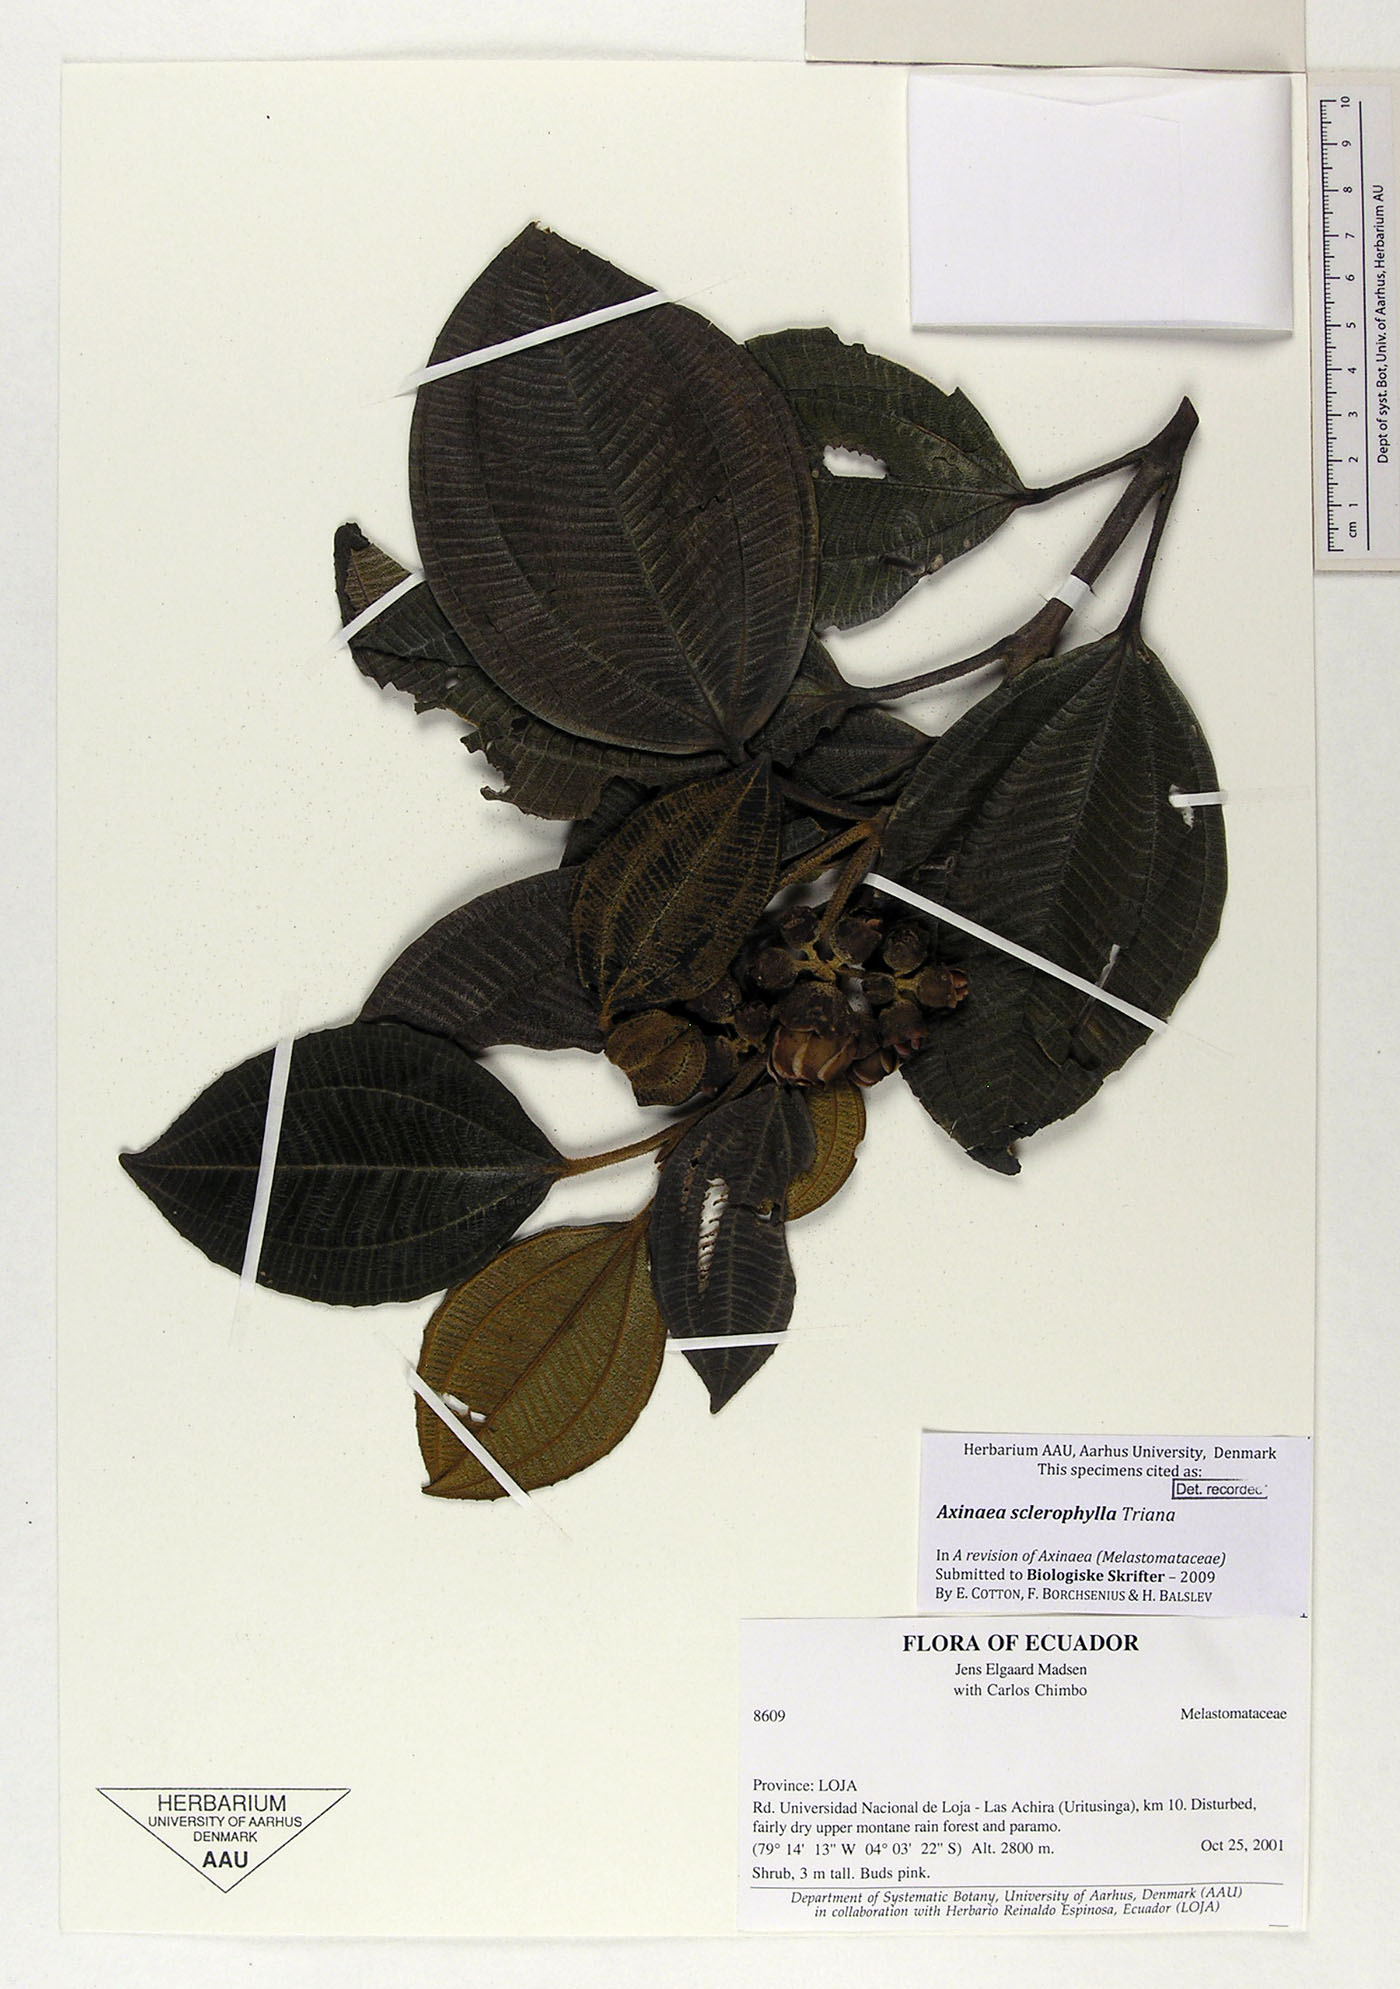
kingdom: Plantae
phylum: Tracheophyta
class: Magnoliopsida
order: Myrtales
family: Melastomataceae
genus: Axinaea
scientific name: Axinaea sclerophylla
